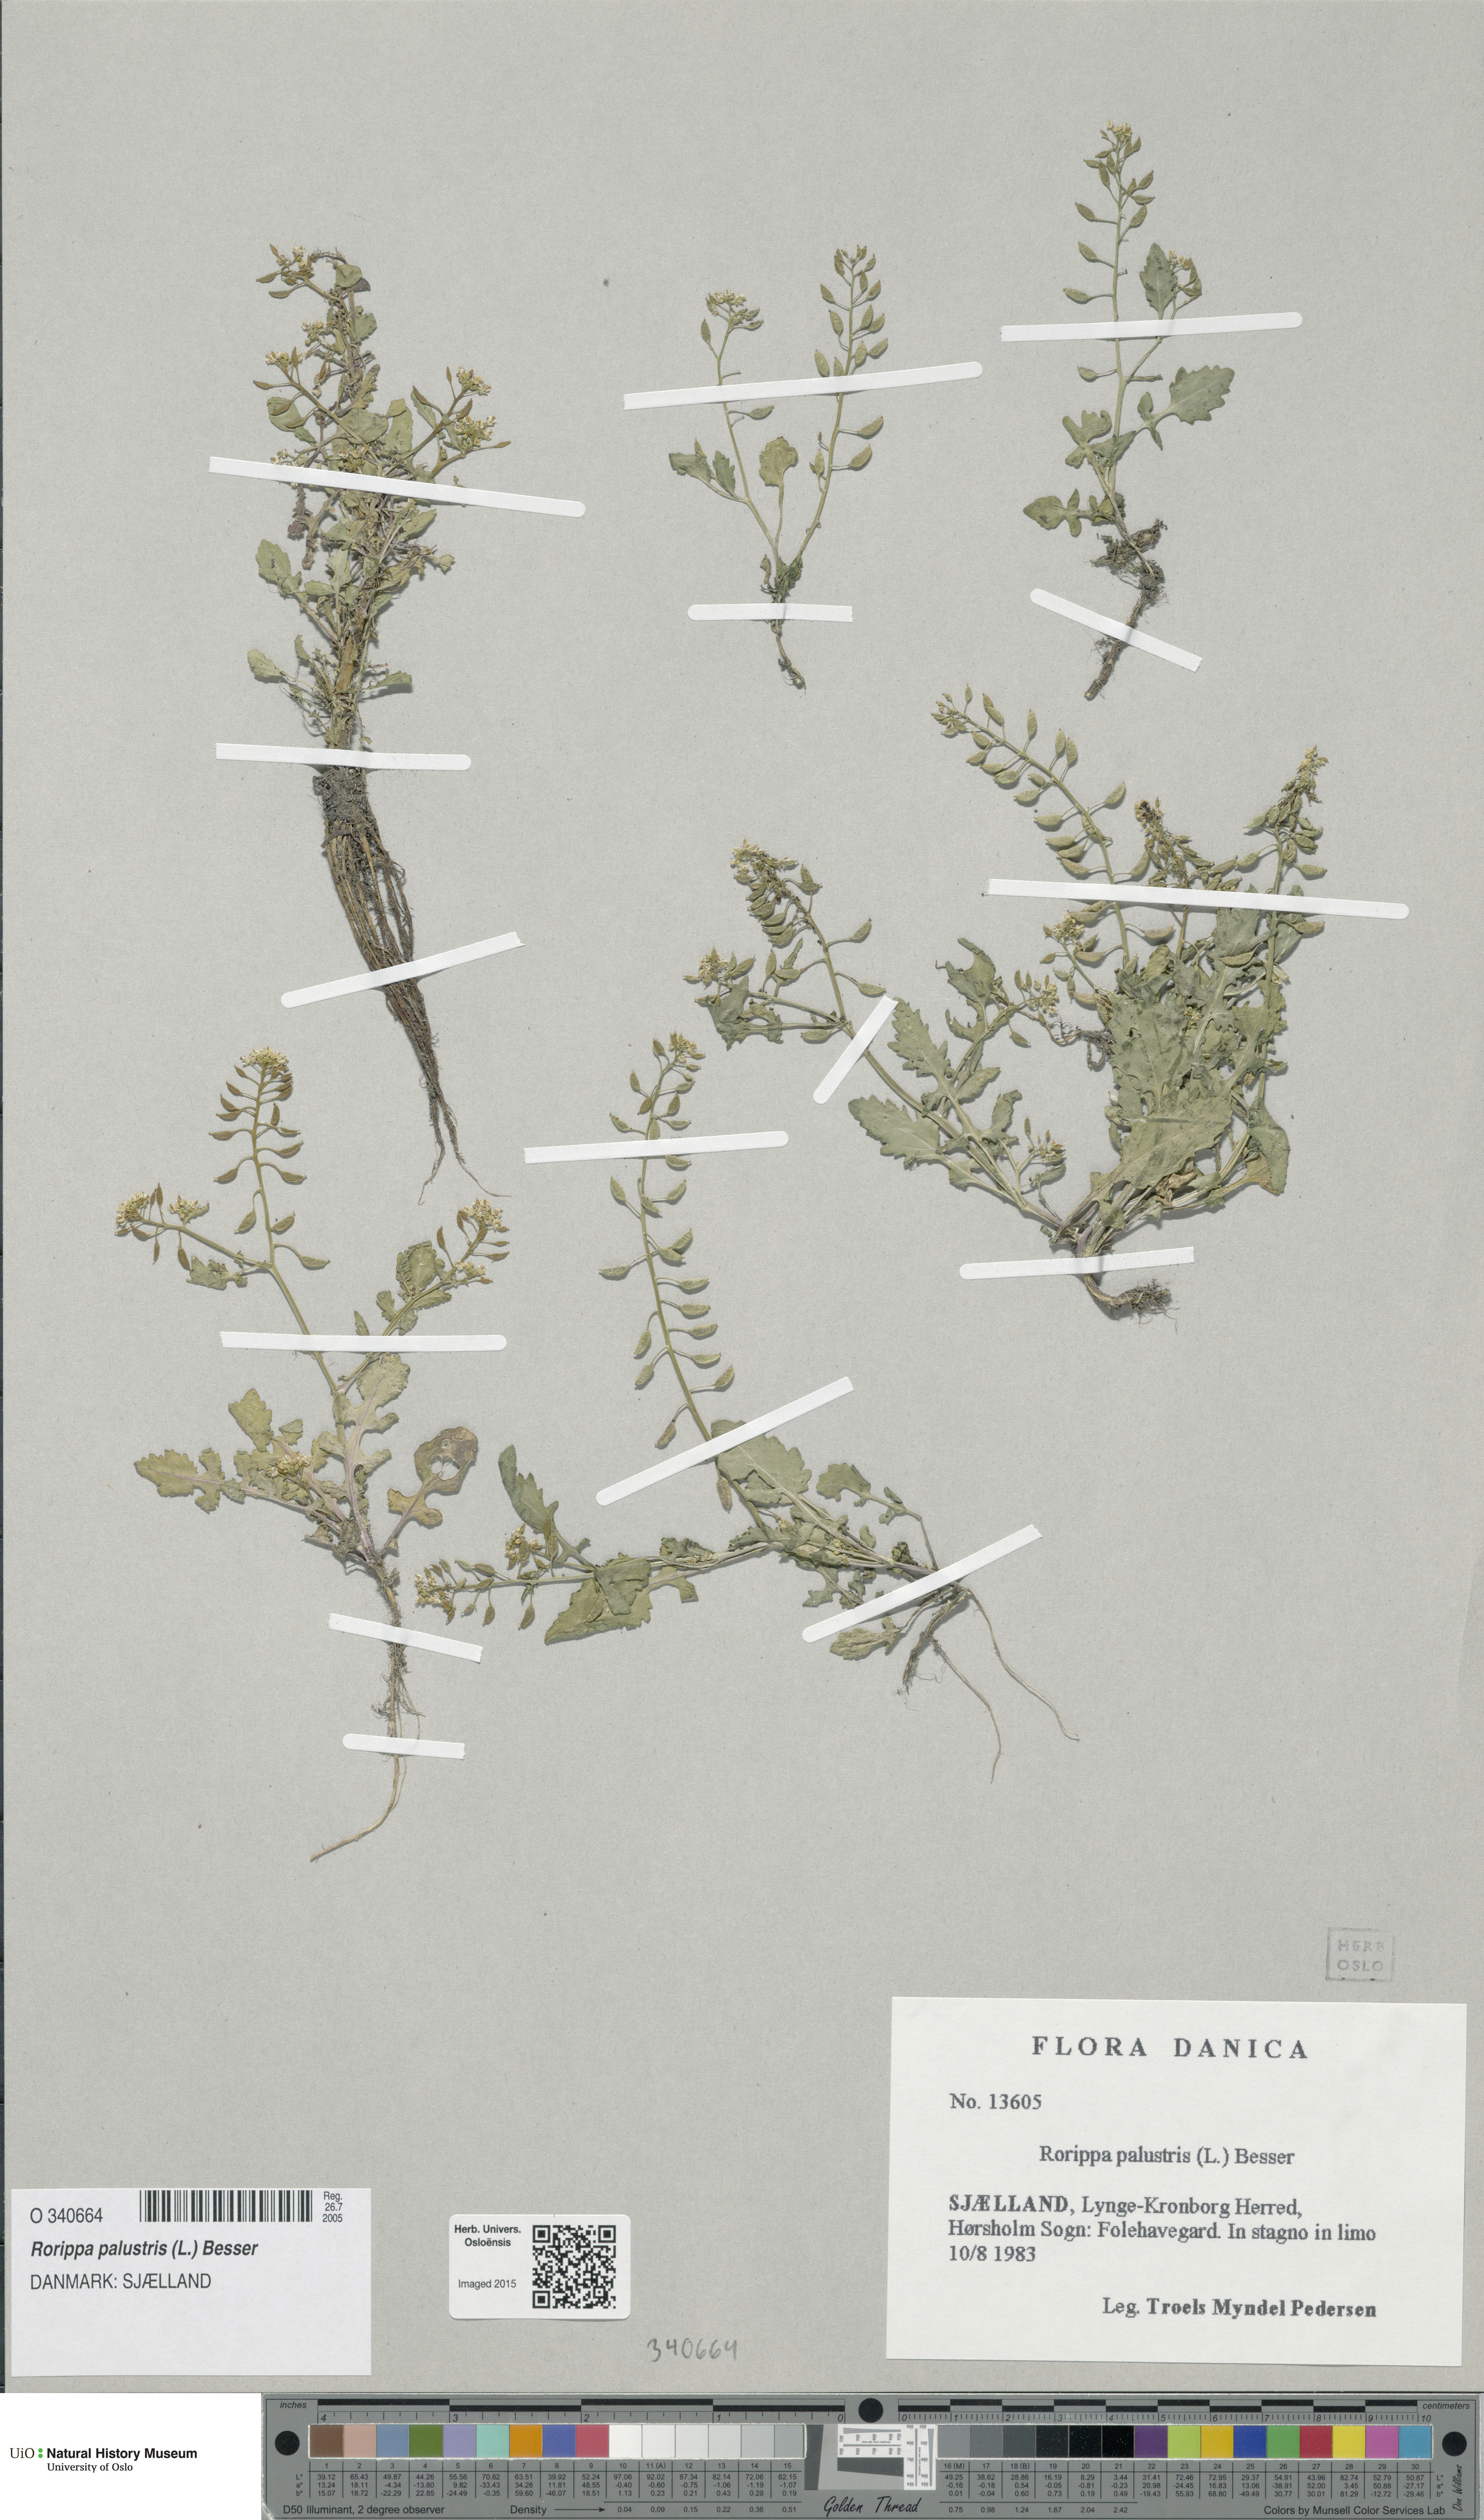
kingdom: Plantae
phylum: Tracheophyta
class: Magnoliopsida
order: Brassicales
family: Brassicaceae
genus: Rorippa
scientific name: Rorippa palustris
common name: Marsh yellow-cress
